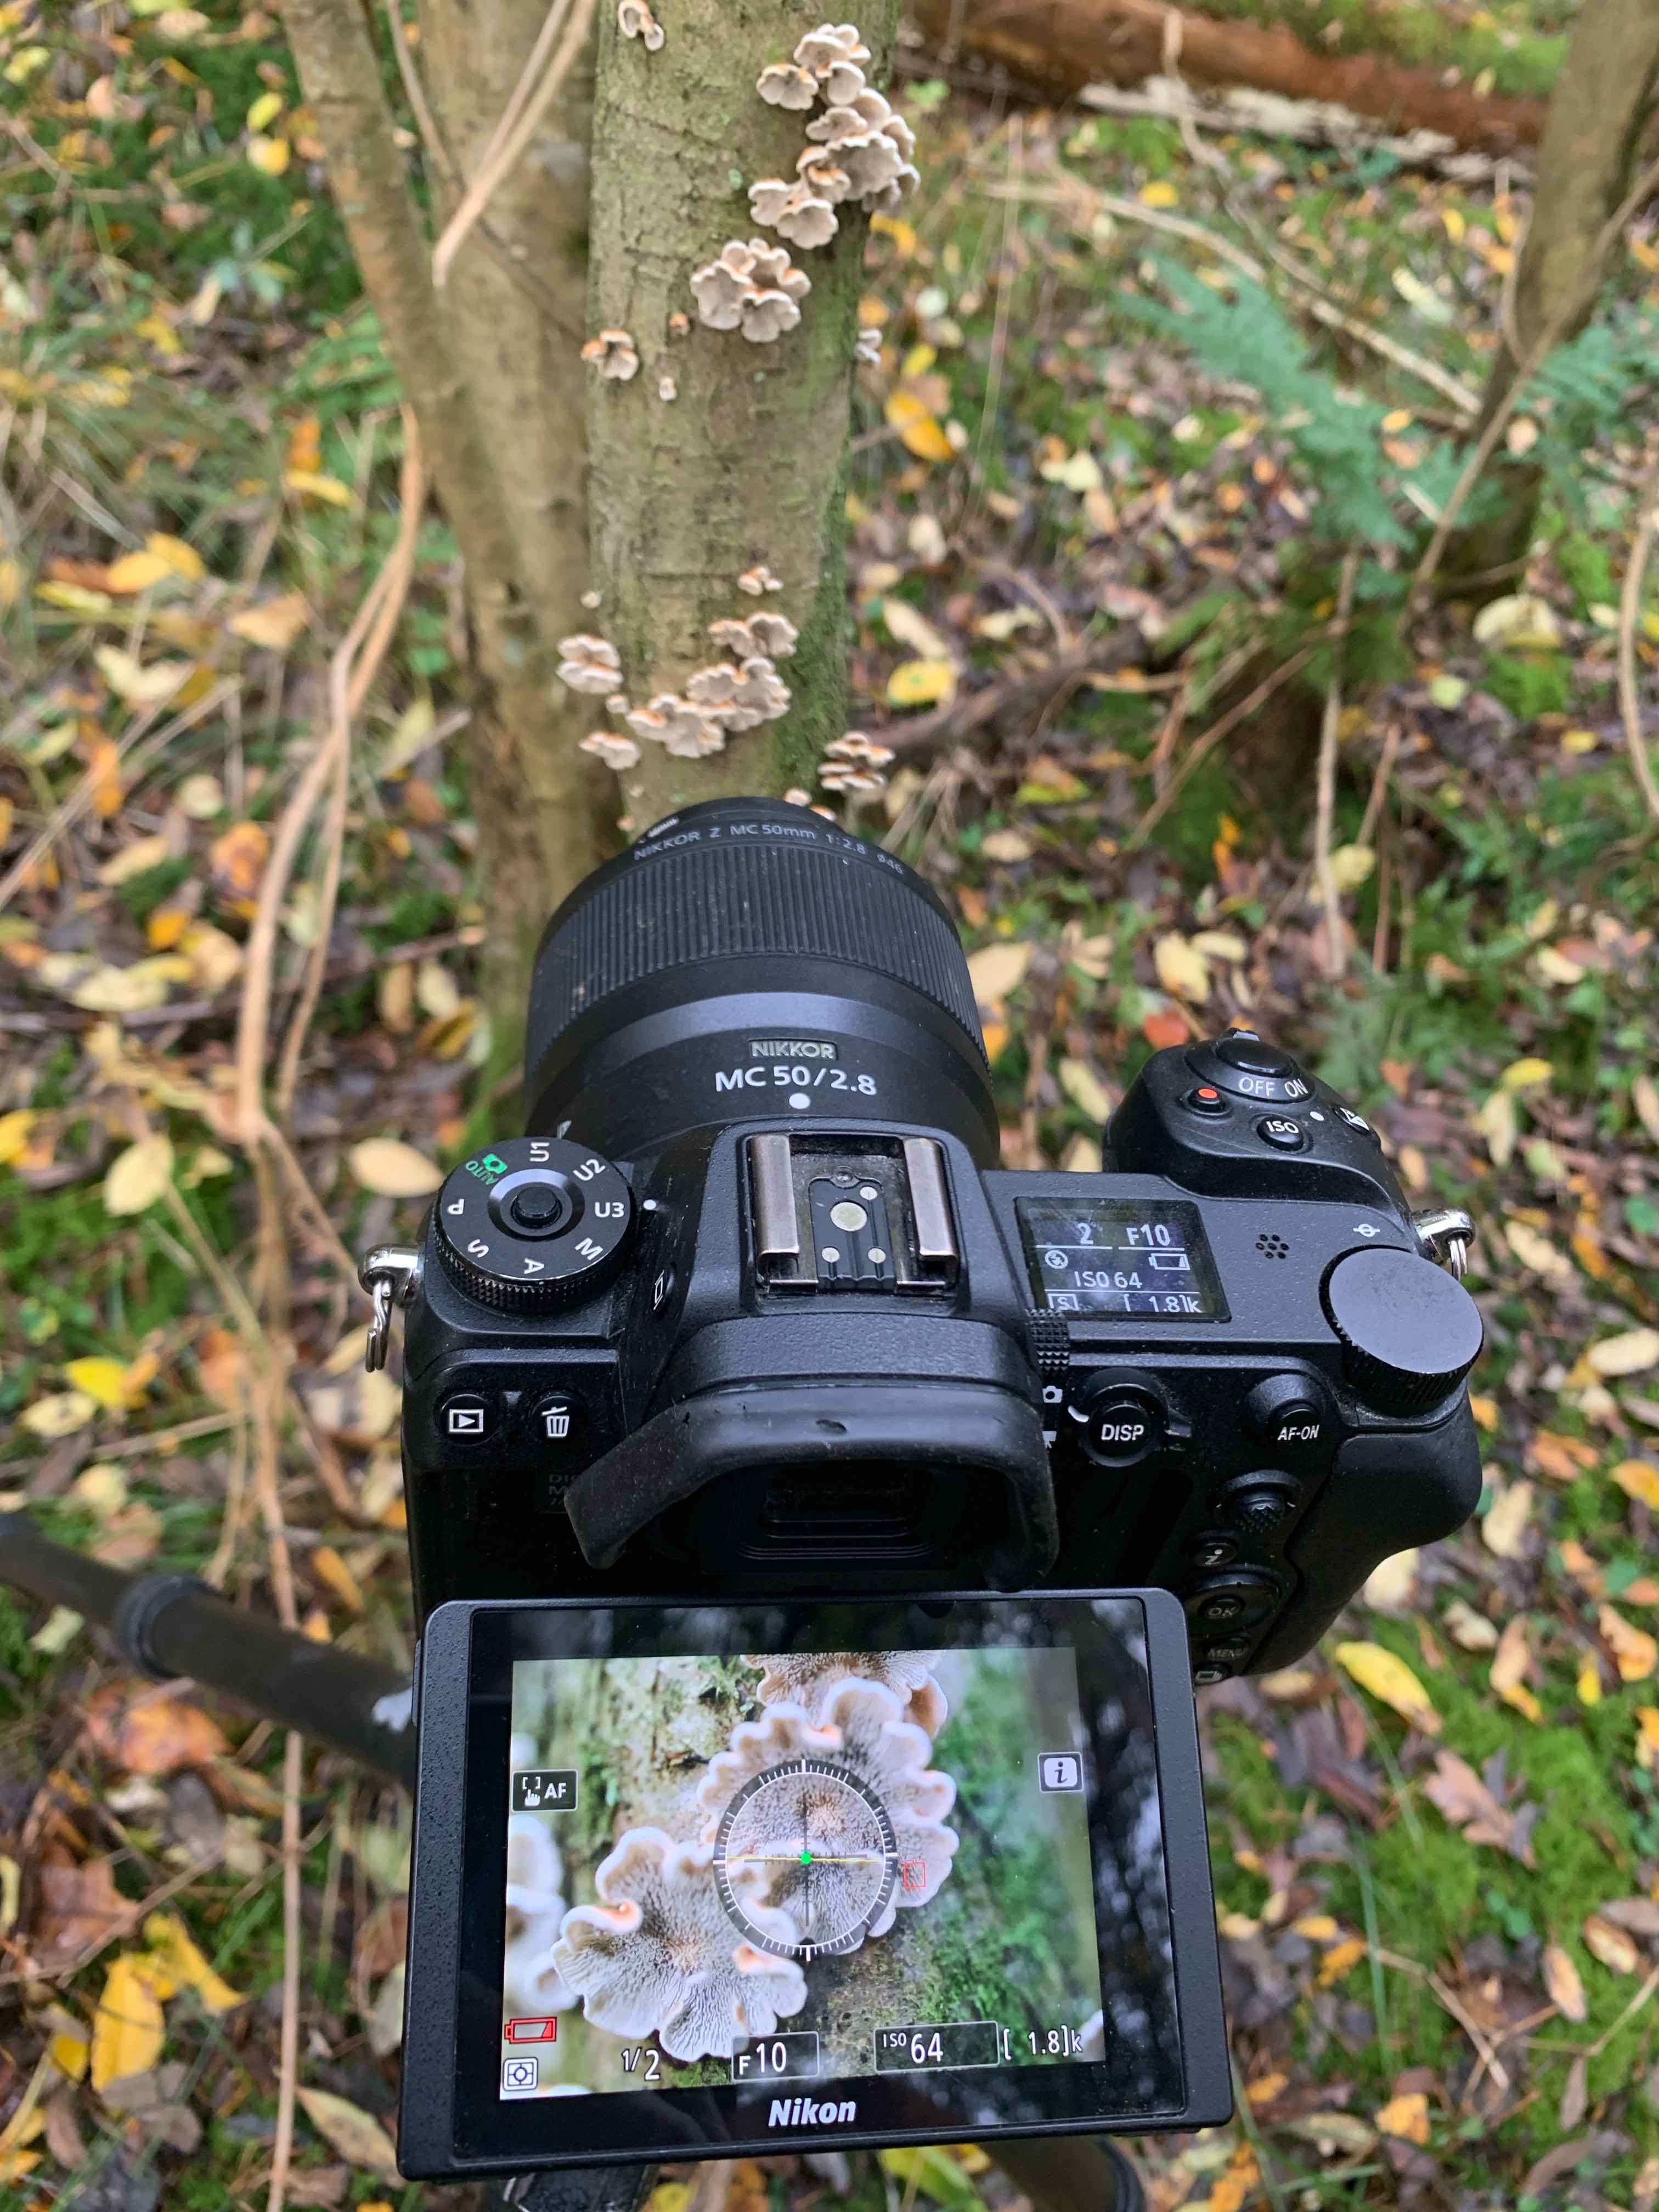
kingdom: Fungi
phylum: Basidiomycota
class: Agaricomycetes
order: Amylocorticiales
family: Amylocorticiaceae
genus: Plicaturopsis
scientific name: Plicaturopsis crispa
